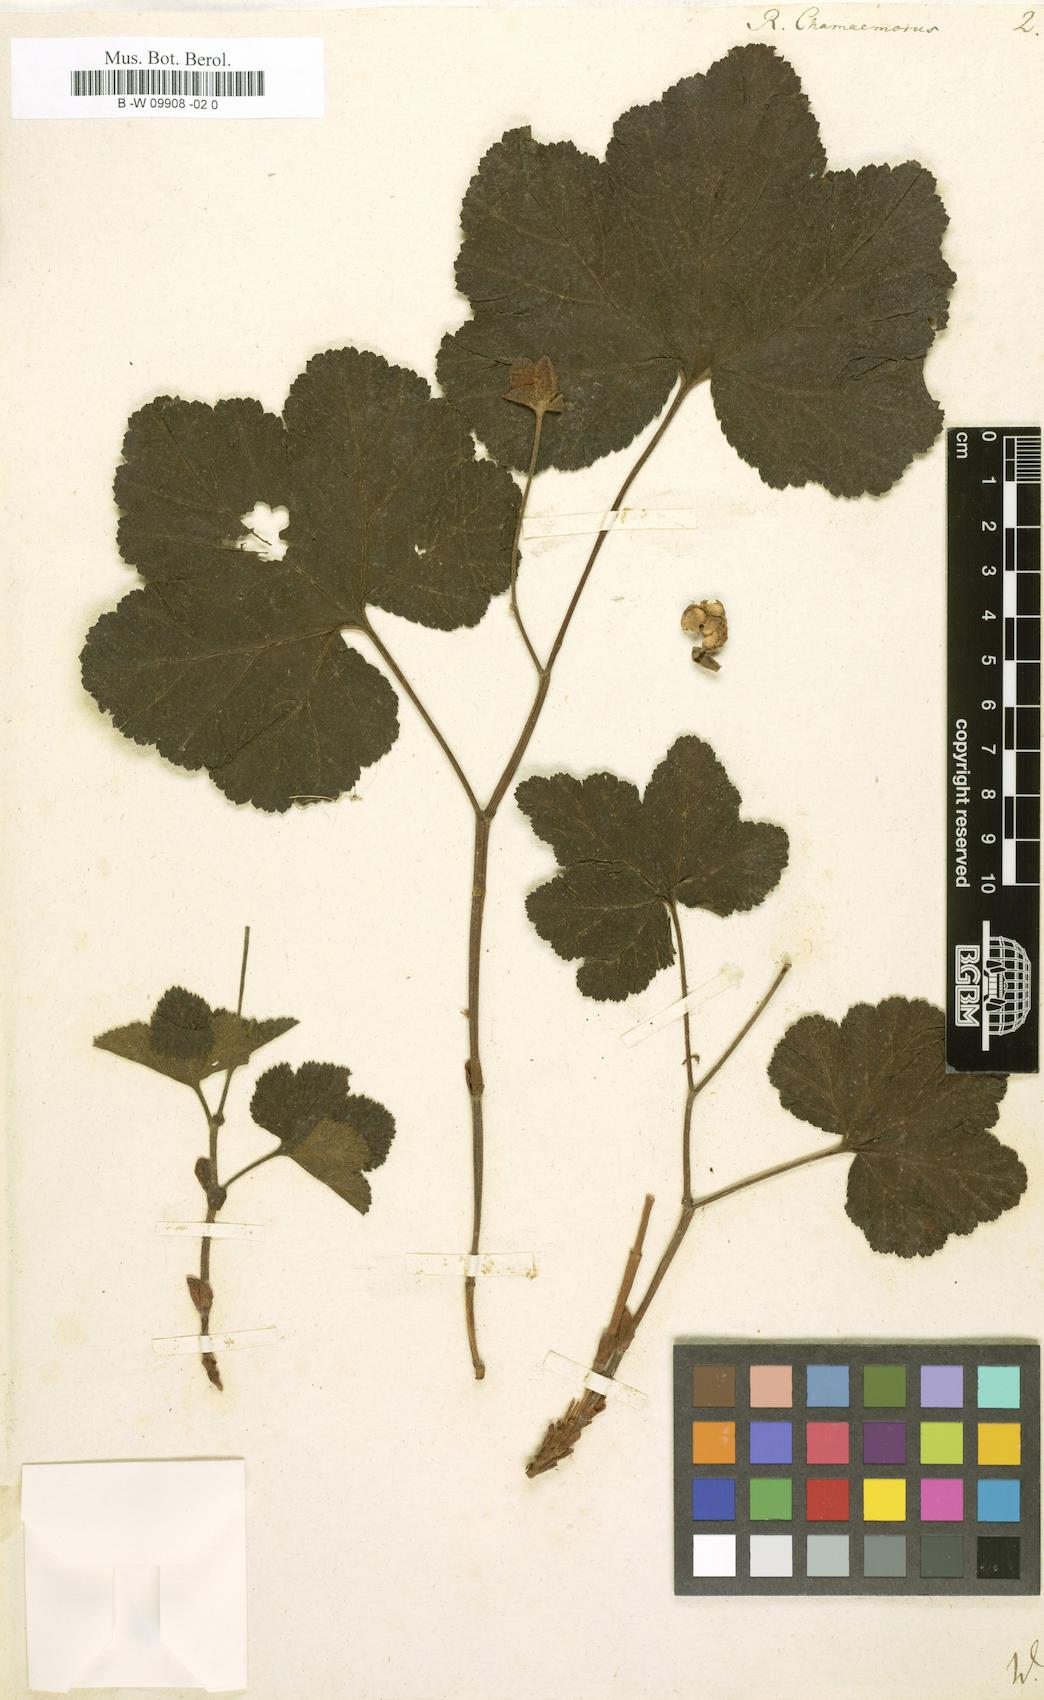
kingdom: Plantae
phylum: Tracheophyta
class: Magnoliopsida
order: Rosales
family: Rosaceae
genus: Rubus
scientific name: Rubus chamaemorus
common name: Cloudberry
